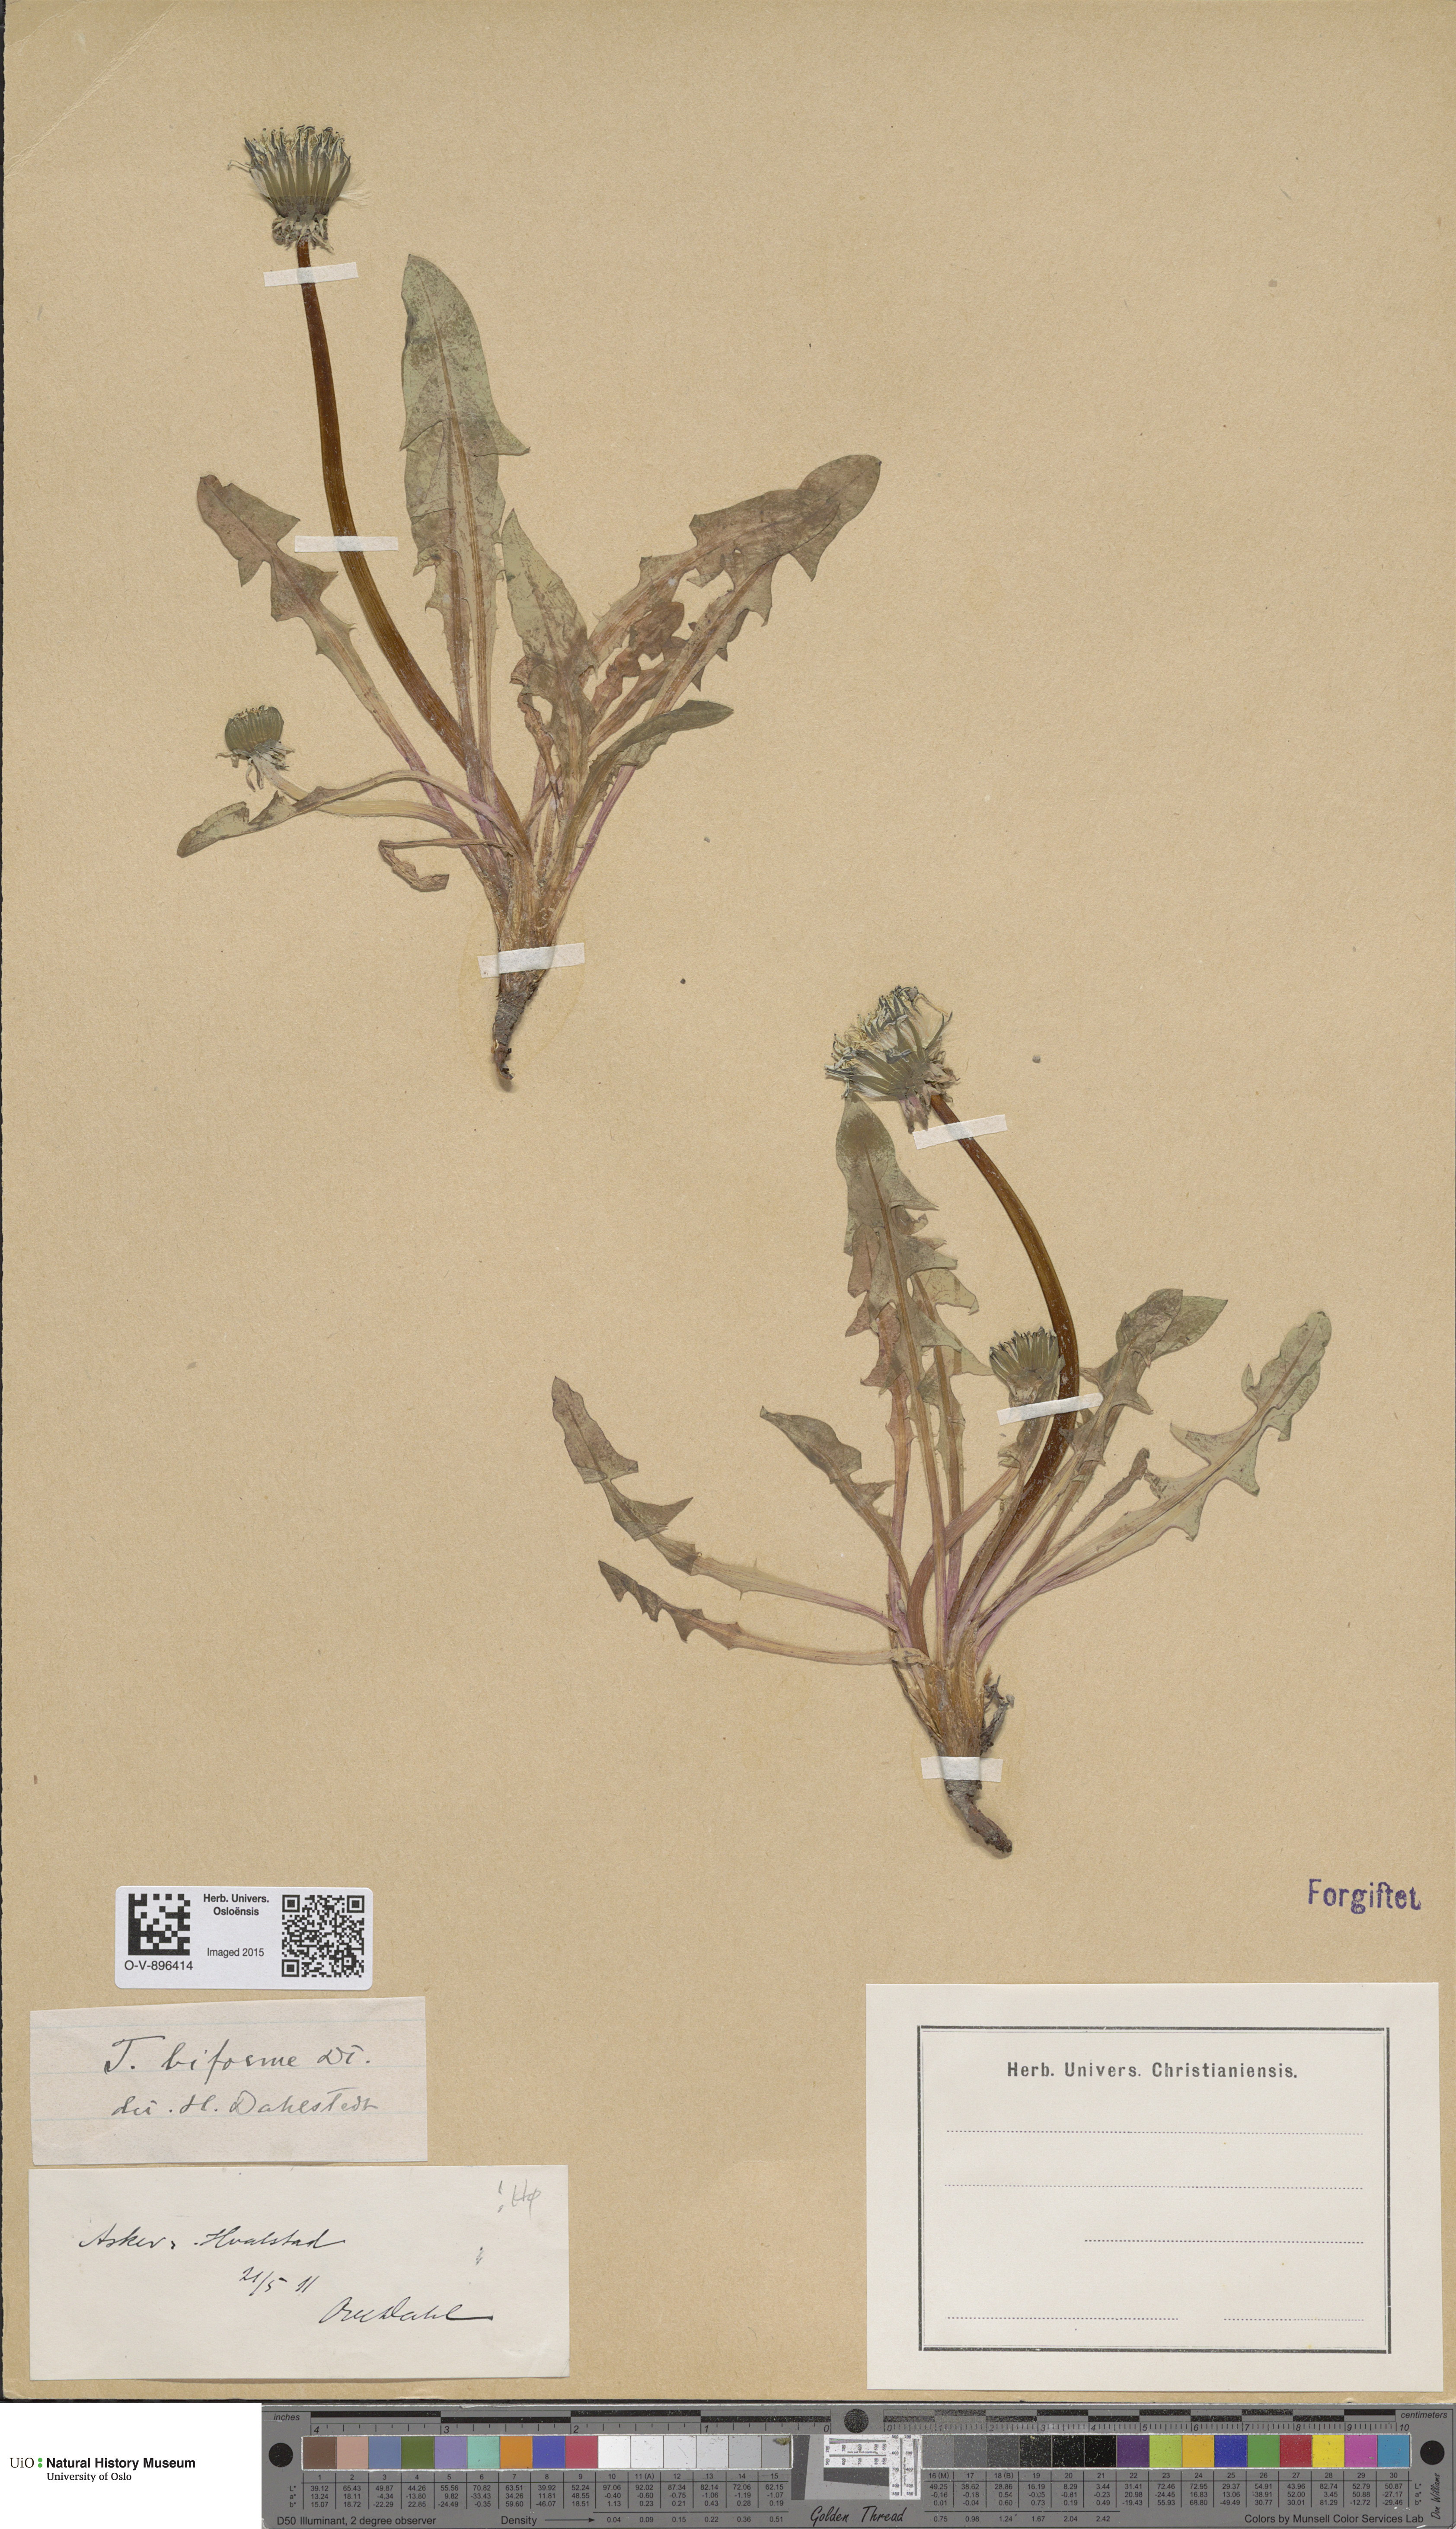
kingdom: Plantae
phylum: Tracheophyta
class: Magnoliopsida
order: Asterales
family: Asteraceae
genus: Taraxacum
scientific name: Taraxacum biforme
